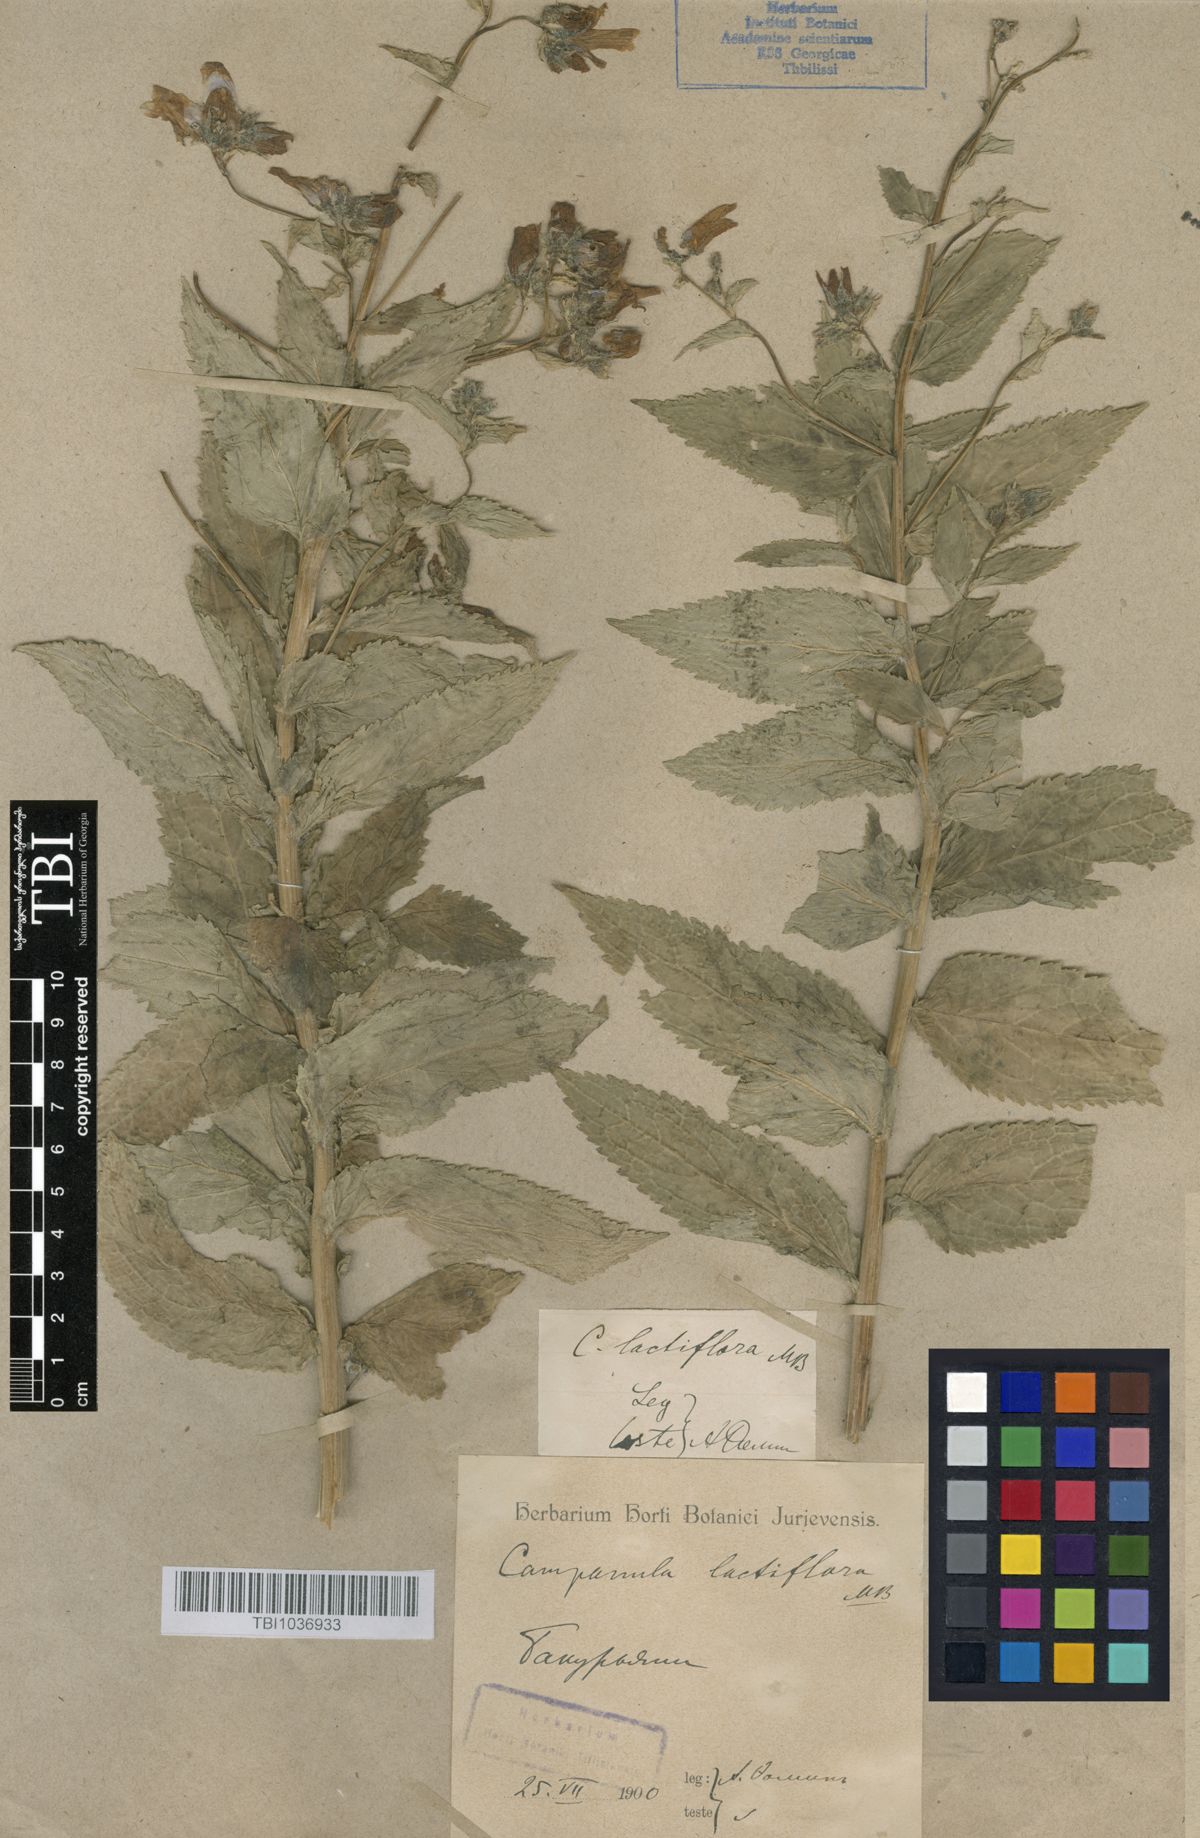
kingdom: Plantae
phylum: Tracheophyta
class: Magnoliopsida
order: Asterales
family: Campanulaceae
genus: Campanula
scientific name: Campanula lactiflora
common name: Milky bellflower
